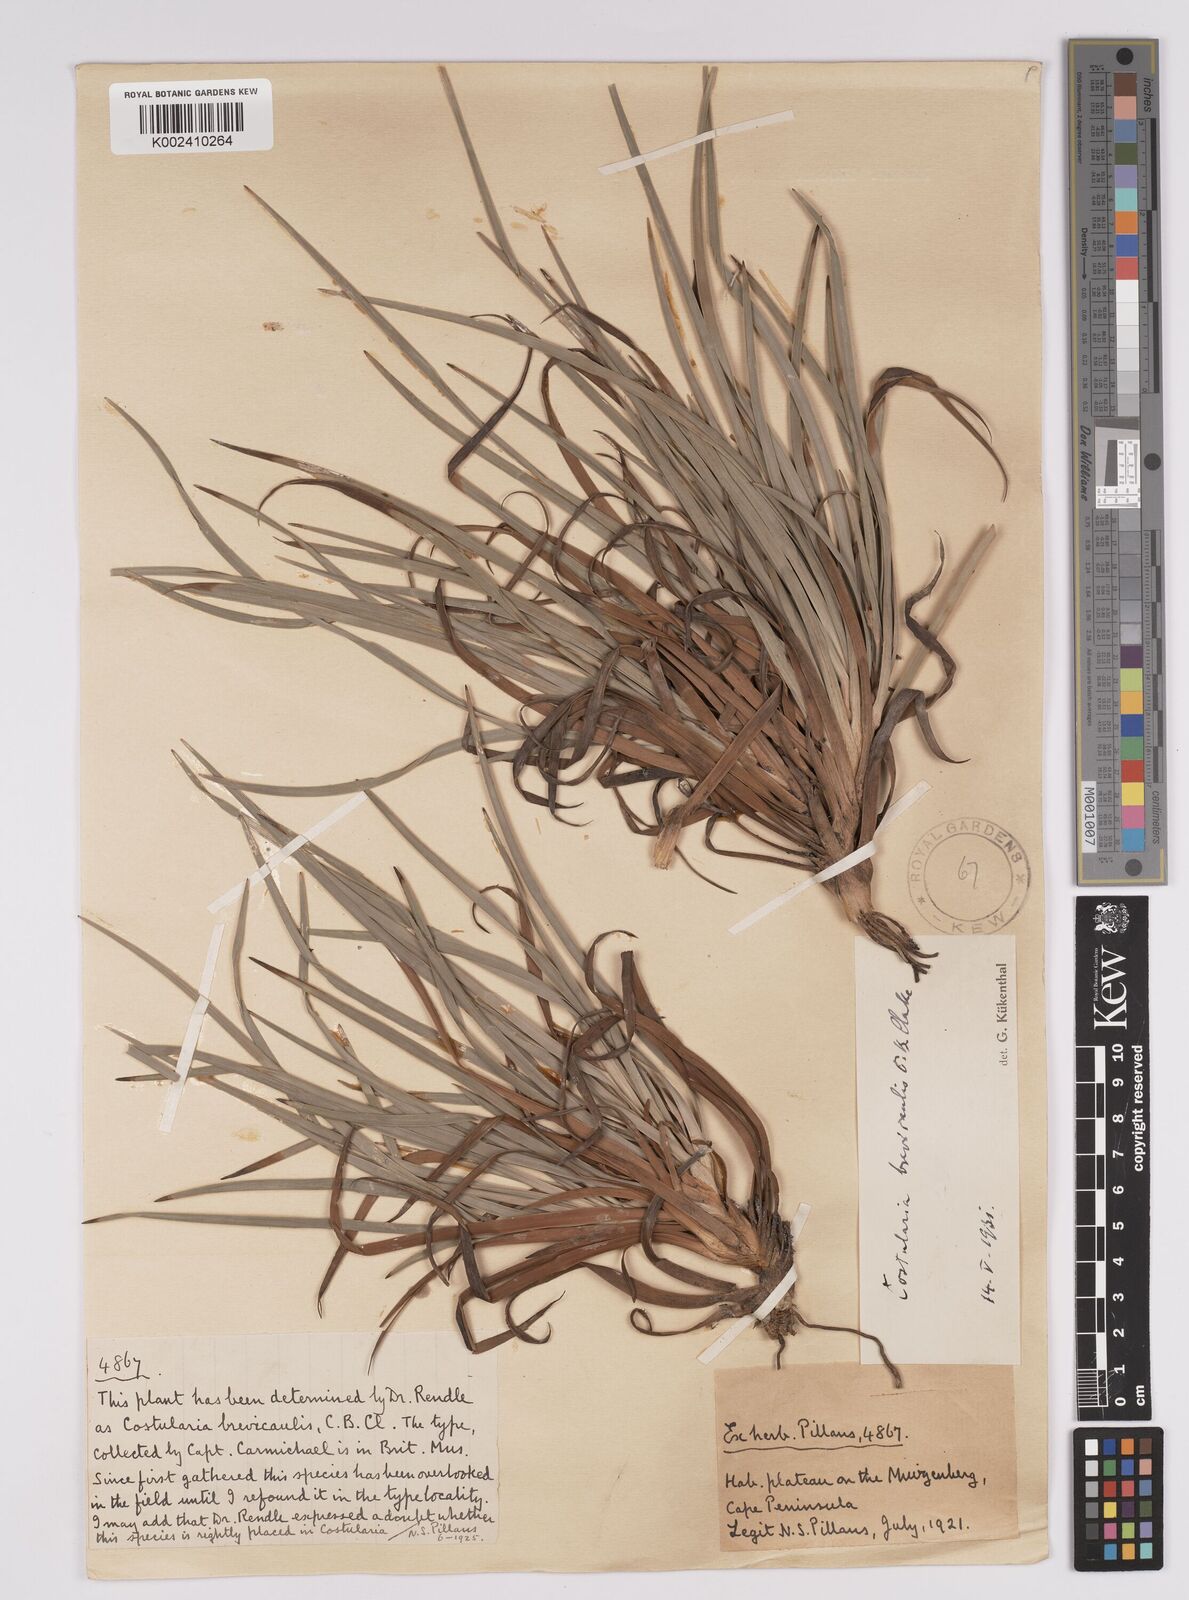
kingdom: Plantae
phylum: Tracheophyta
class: Liliopsida
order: Poales
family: Cyperaceae
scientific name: Cyperaceae
